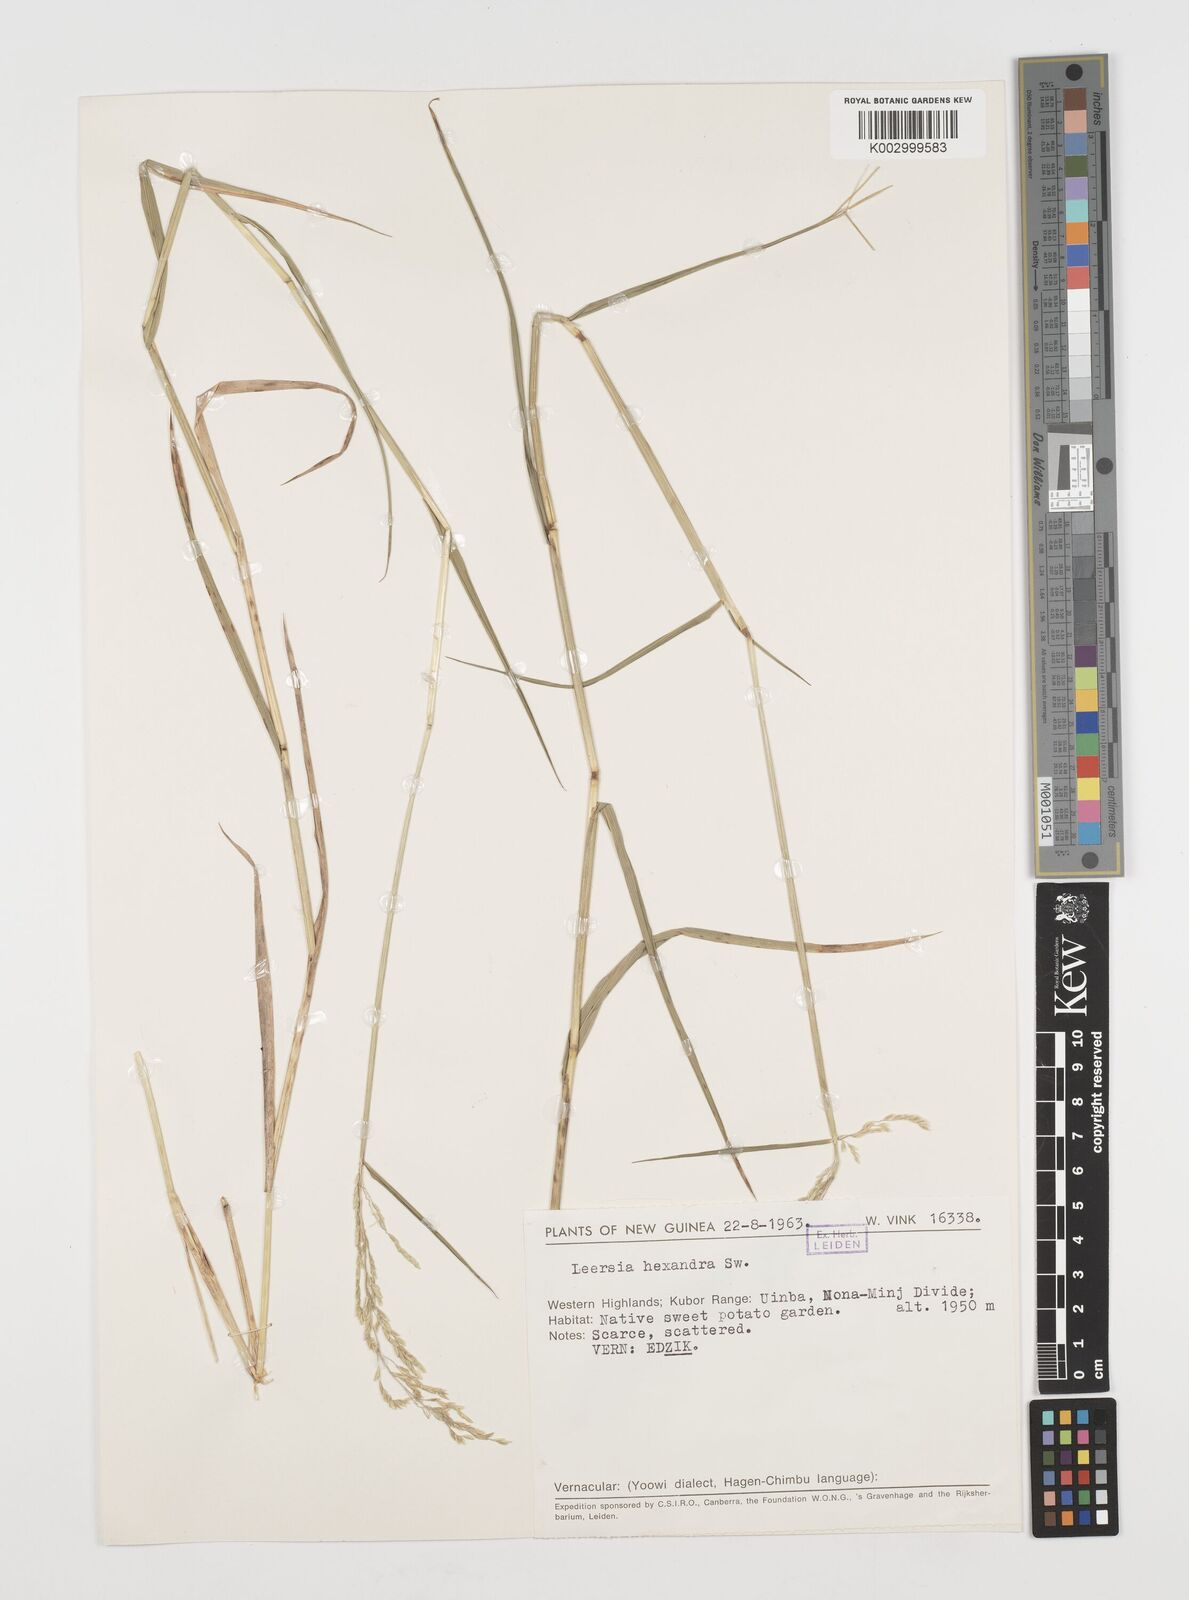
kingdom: Plantae
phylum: Tracheophyta
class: Liliopsida
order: Poales
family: Poaceae
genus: Leersia
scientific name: Leersia hexandra
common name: Southern cut grass
